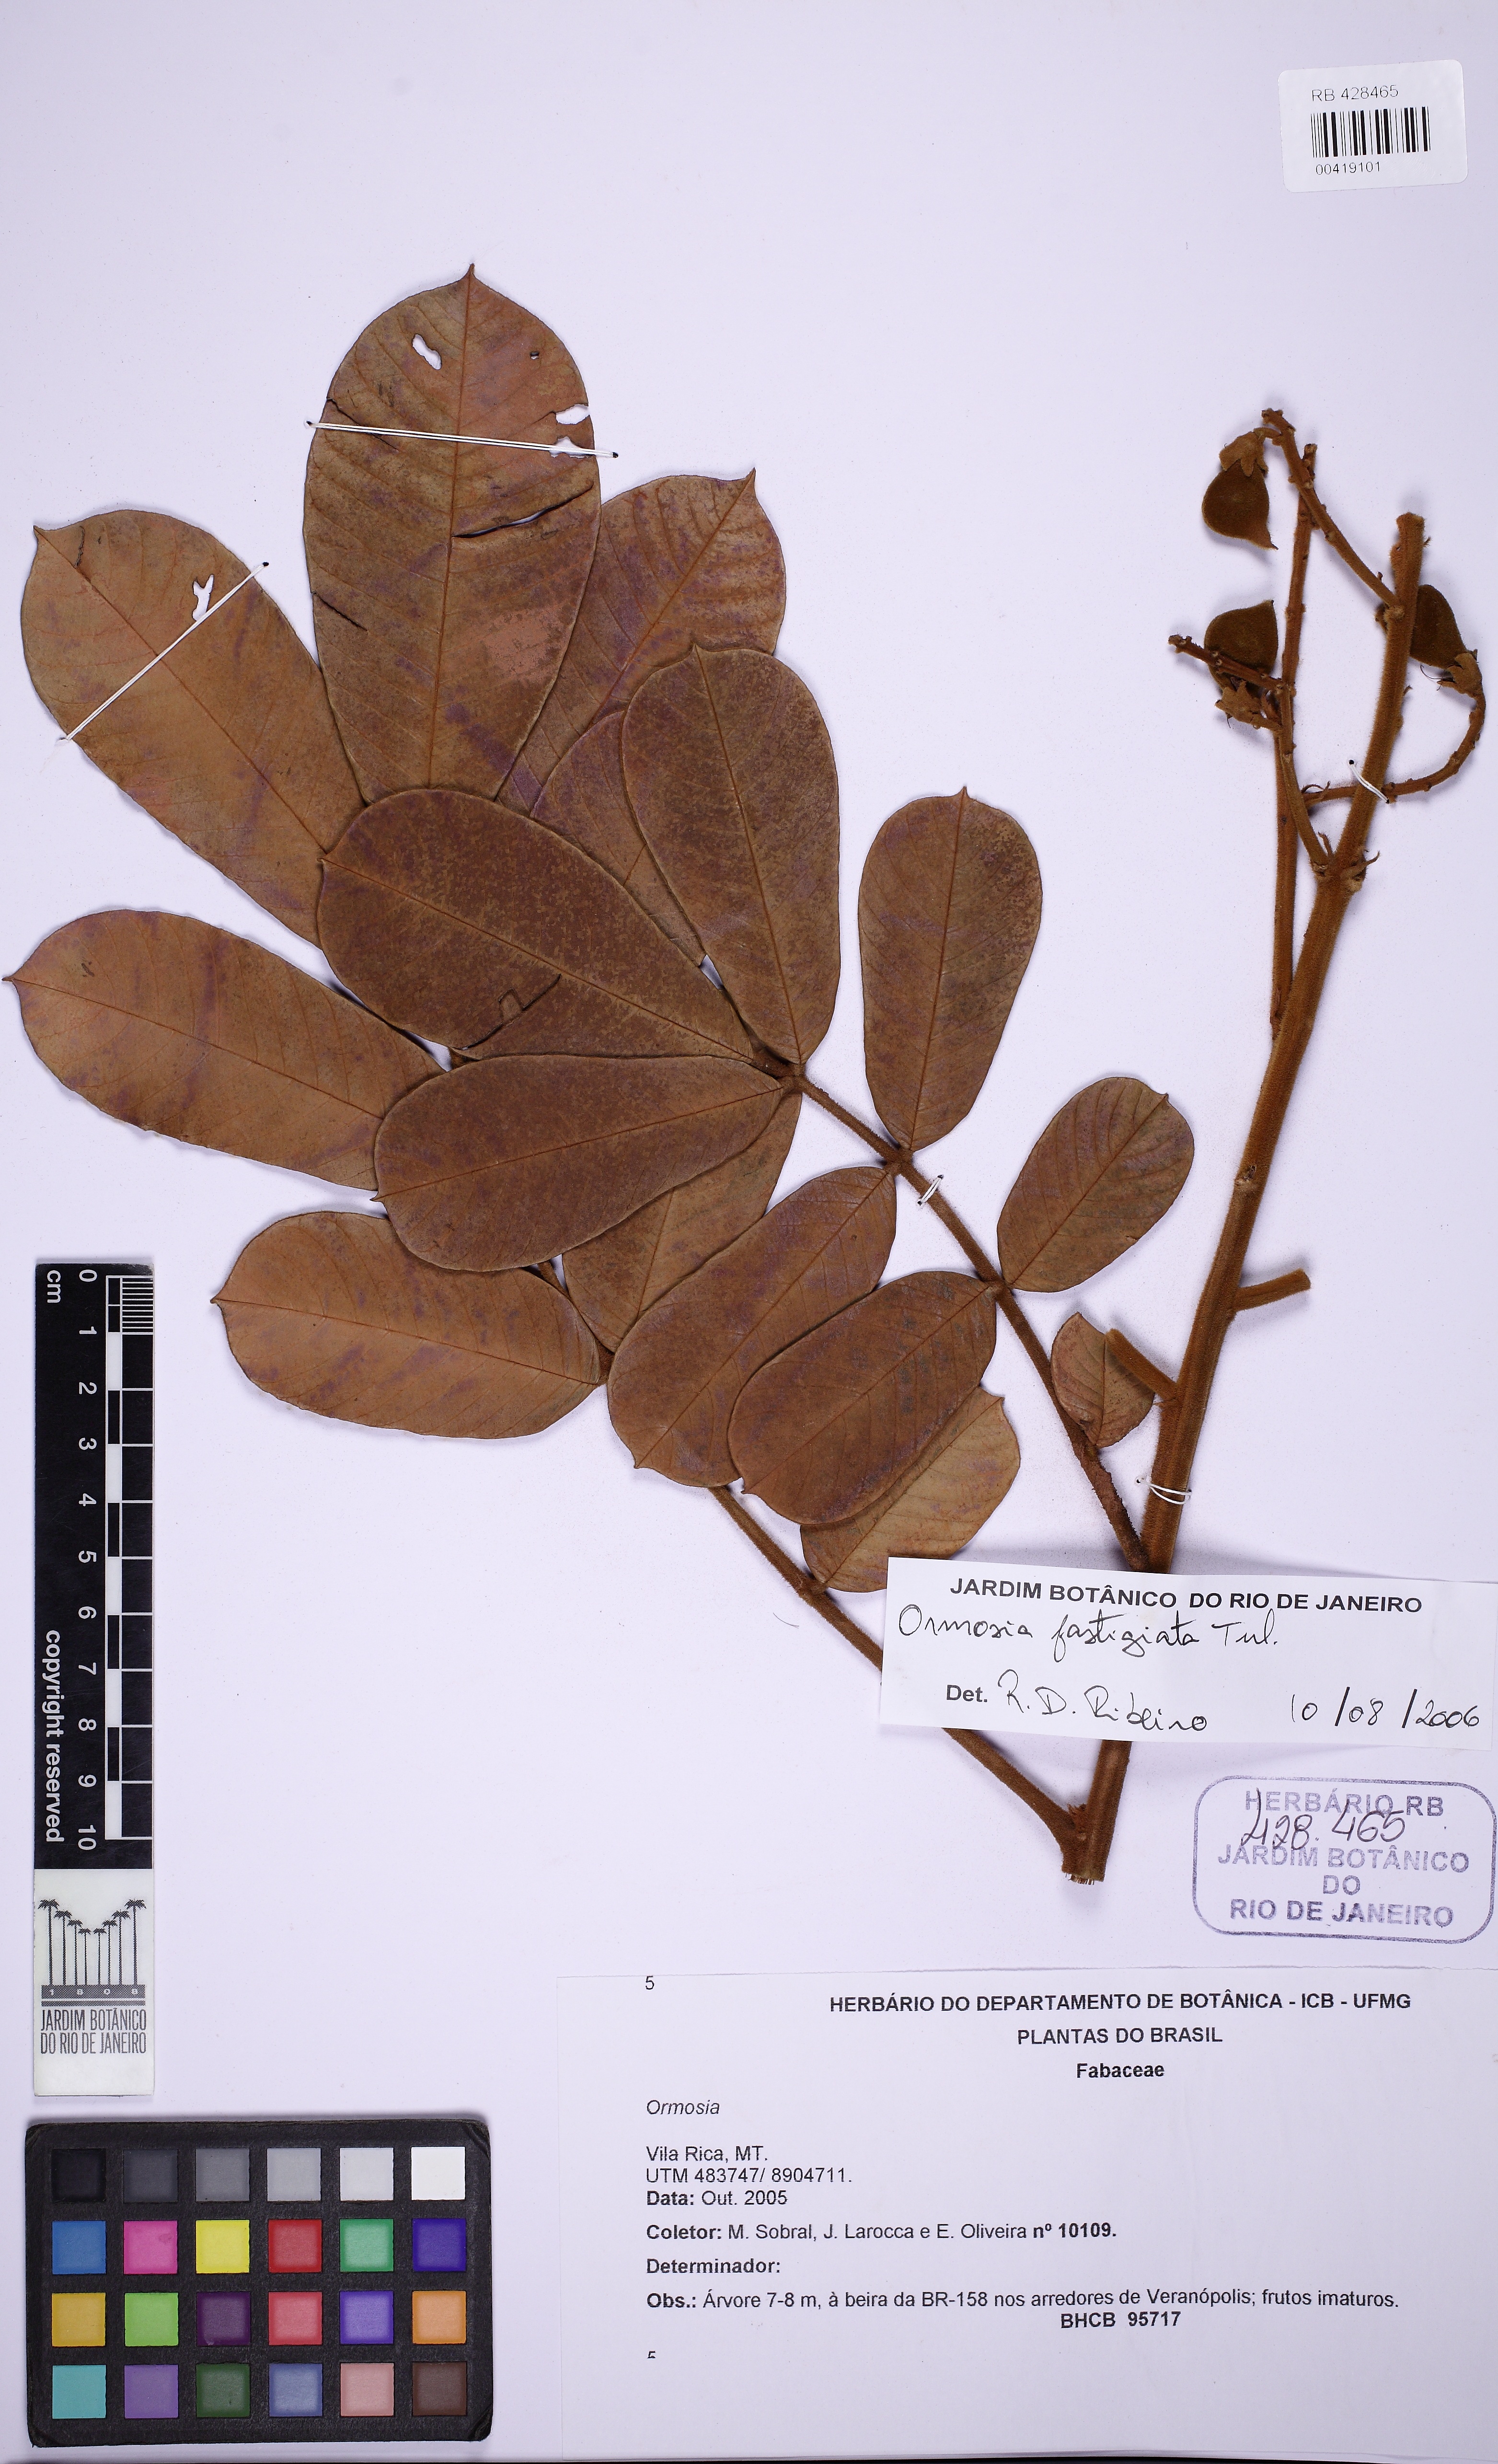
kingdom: Plantae
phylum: Tracheophyta
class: Magnoliopsida
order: Fabales
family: Fabaceae
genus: Ormosia
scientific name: Ormosia fastigiata
